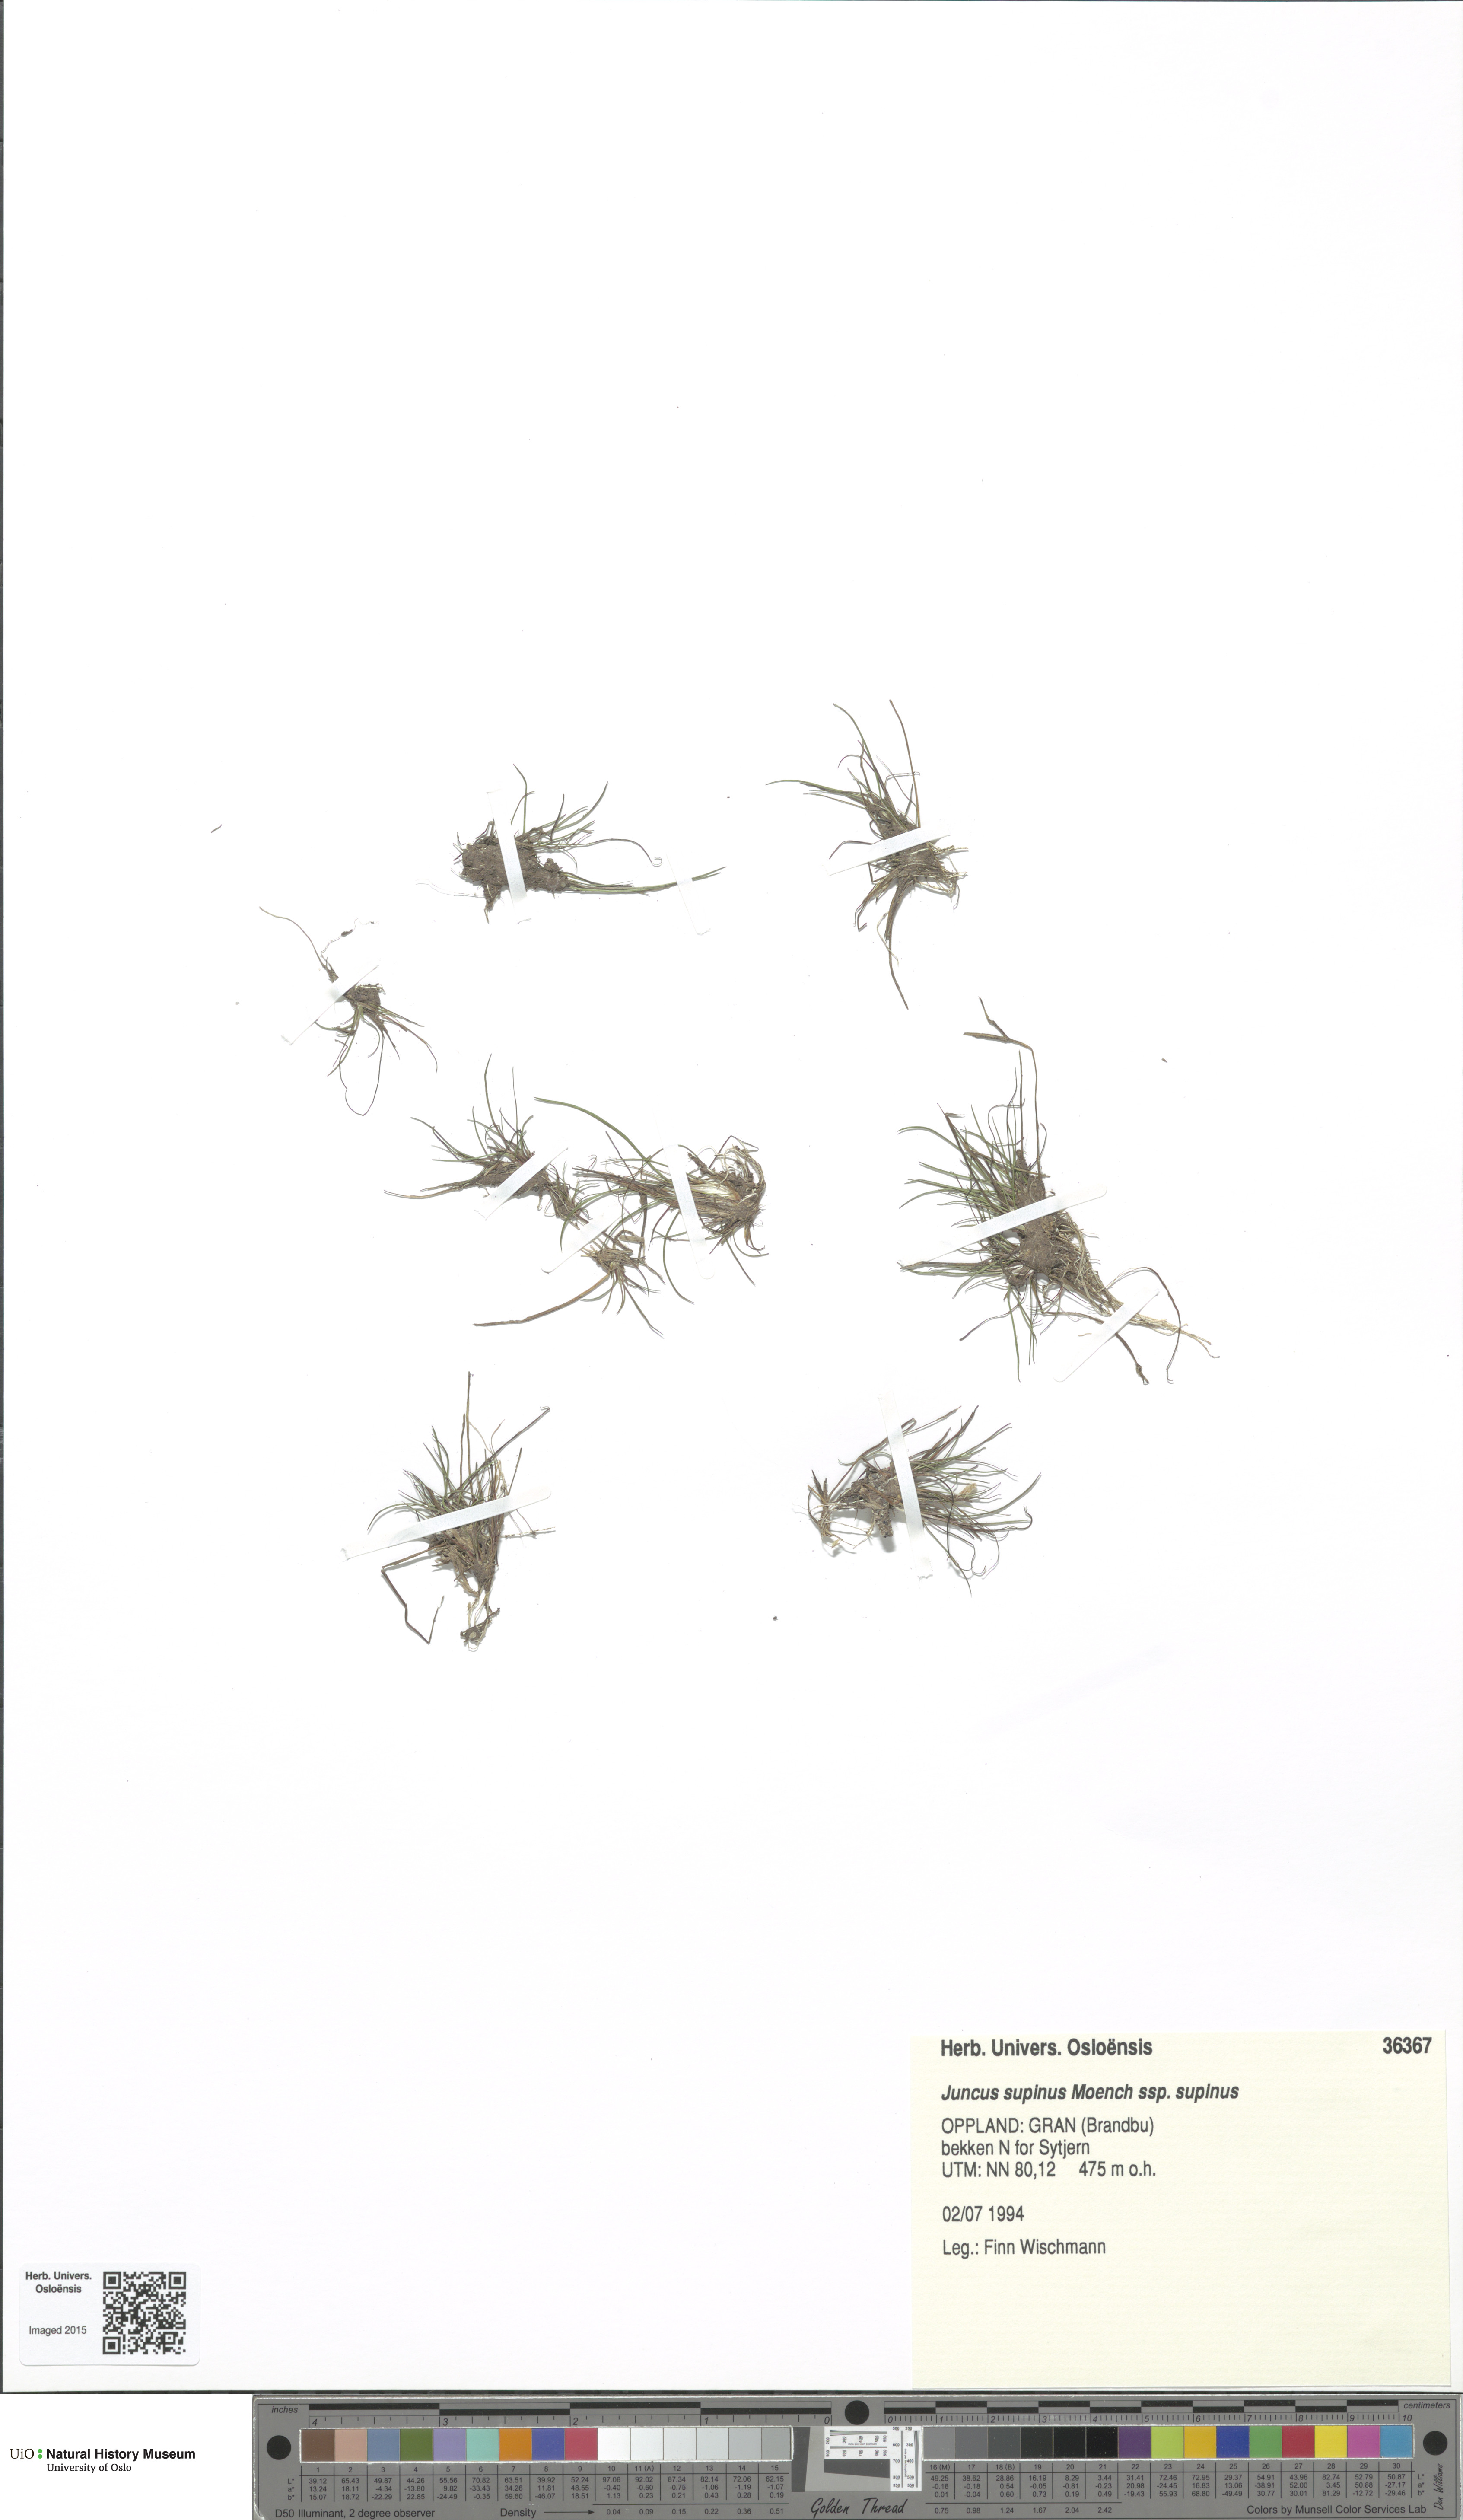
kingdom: Plantae
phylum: Tracheophyta
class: Liliopsida
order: Poales
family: Juncaceae
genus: Juncus
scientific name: Juncus bulbosus
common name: Bulbous rush
